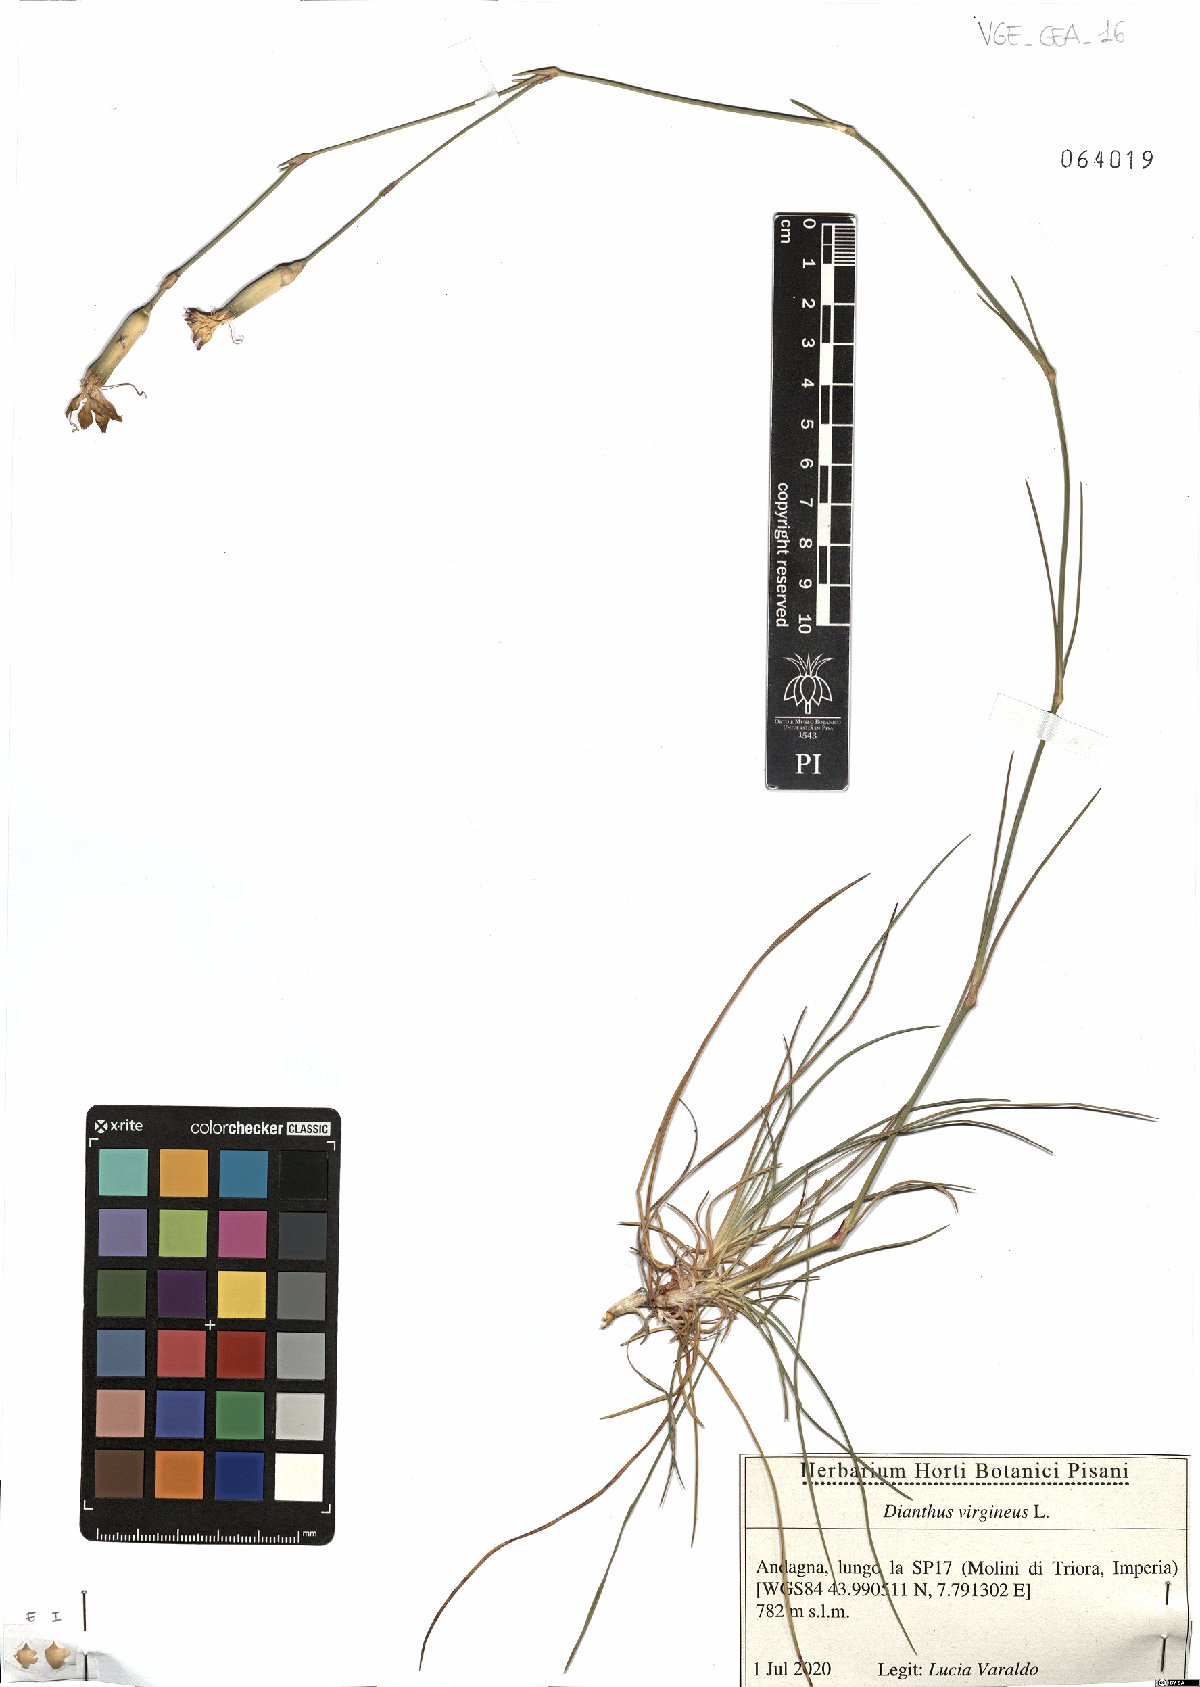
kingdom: Plantae
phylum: Tracheophyta
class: Magnoliopsida
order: Caryophyllales
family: Caryophyllaceae
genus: Dianthus
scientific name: Dianthus virgineus
